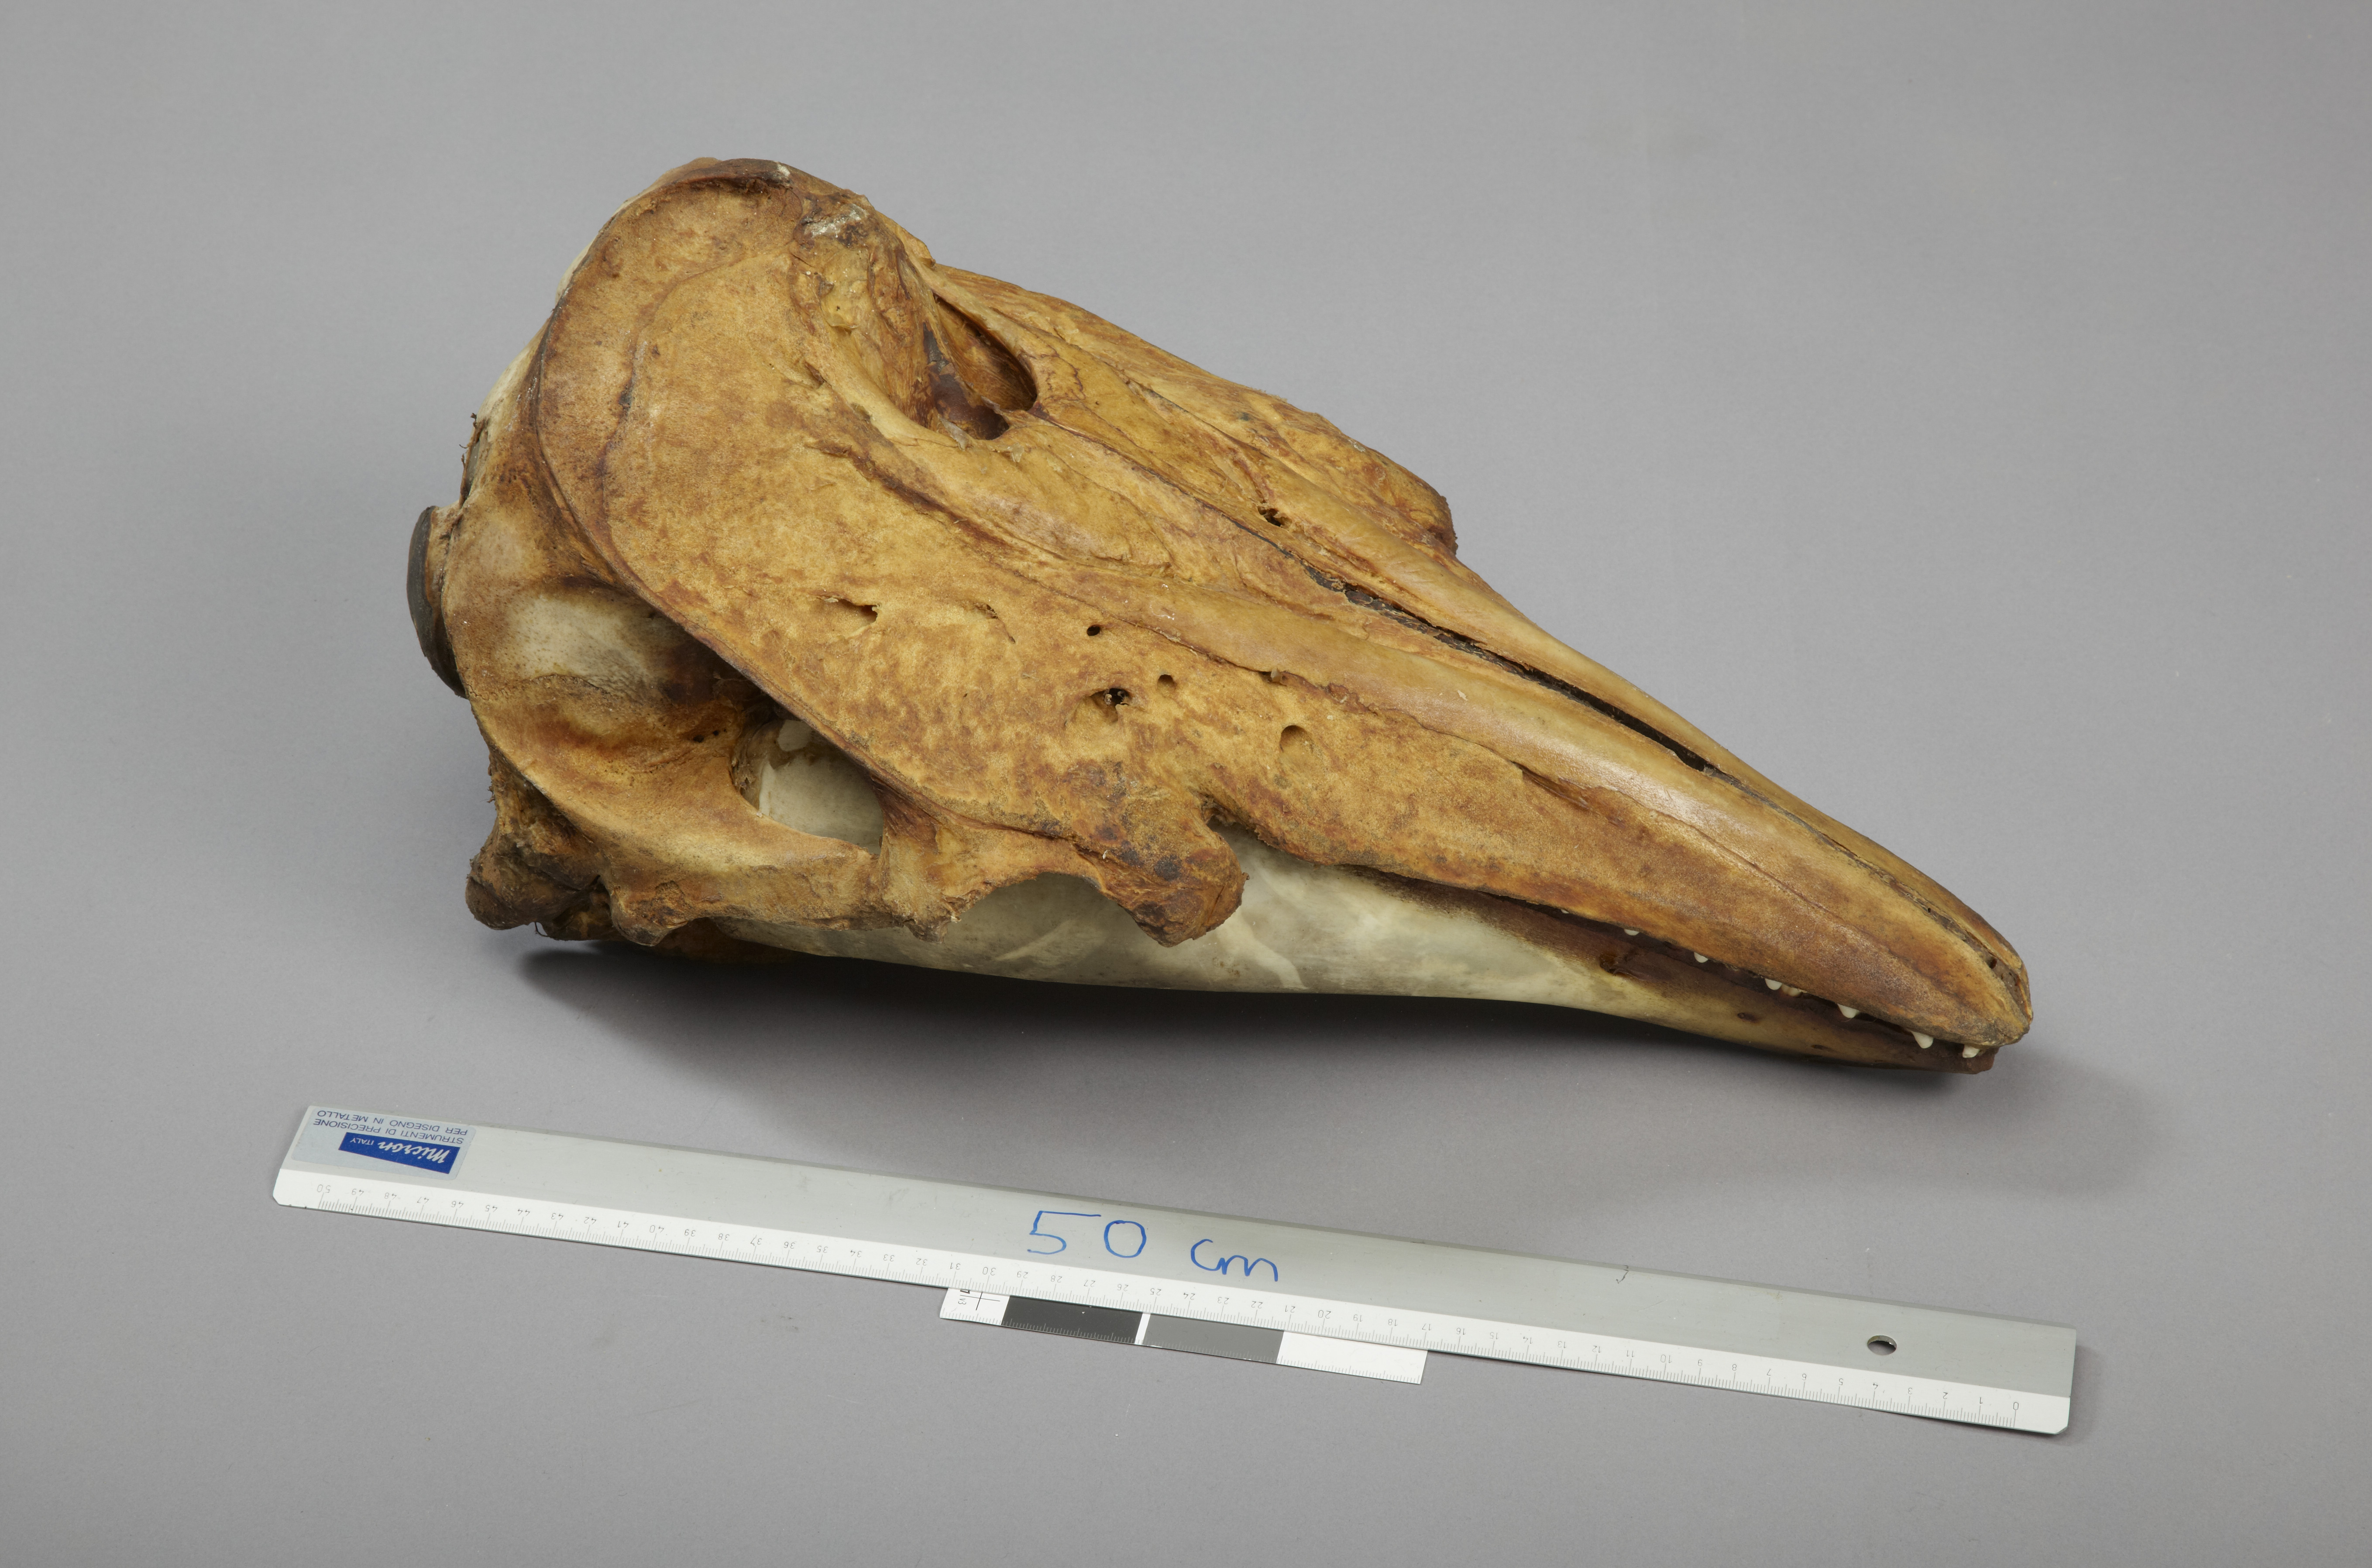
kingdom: Animalia
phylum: Chordata
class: Mammalia
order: Cetacea
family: Monodontidae
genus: Delphinapterus
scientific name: Delphinapterus leucas
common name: Beluga
